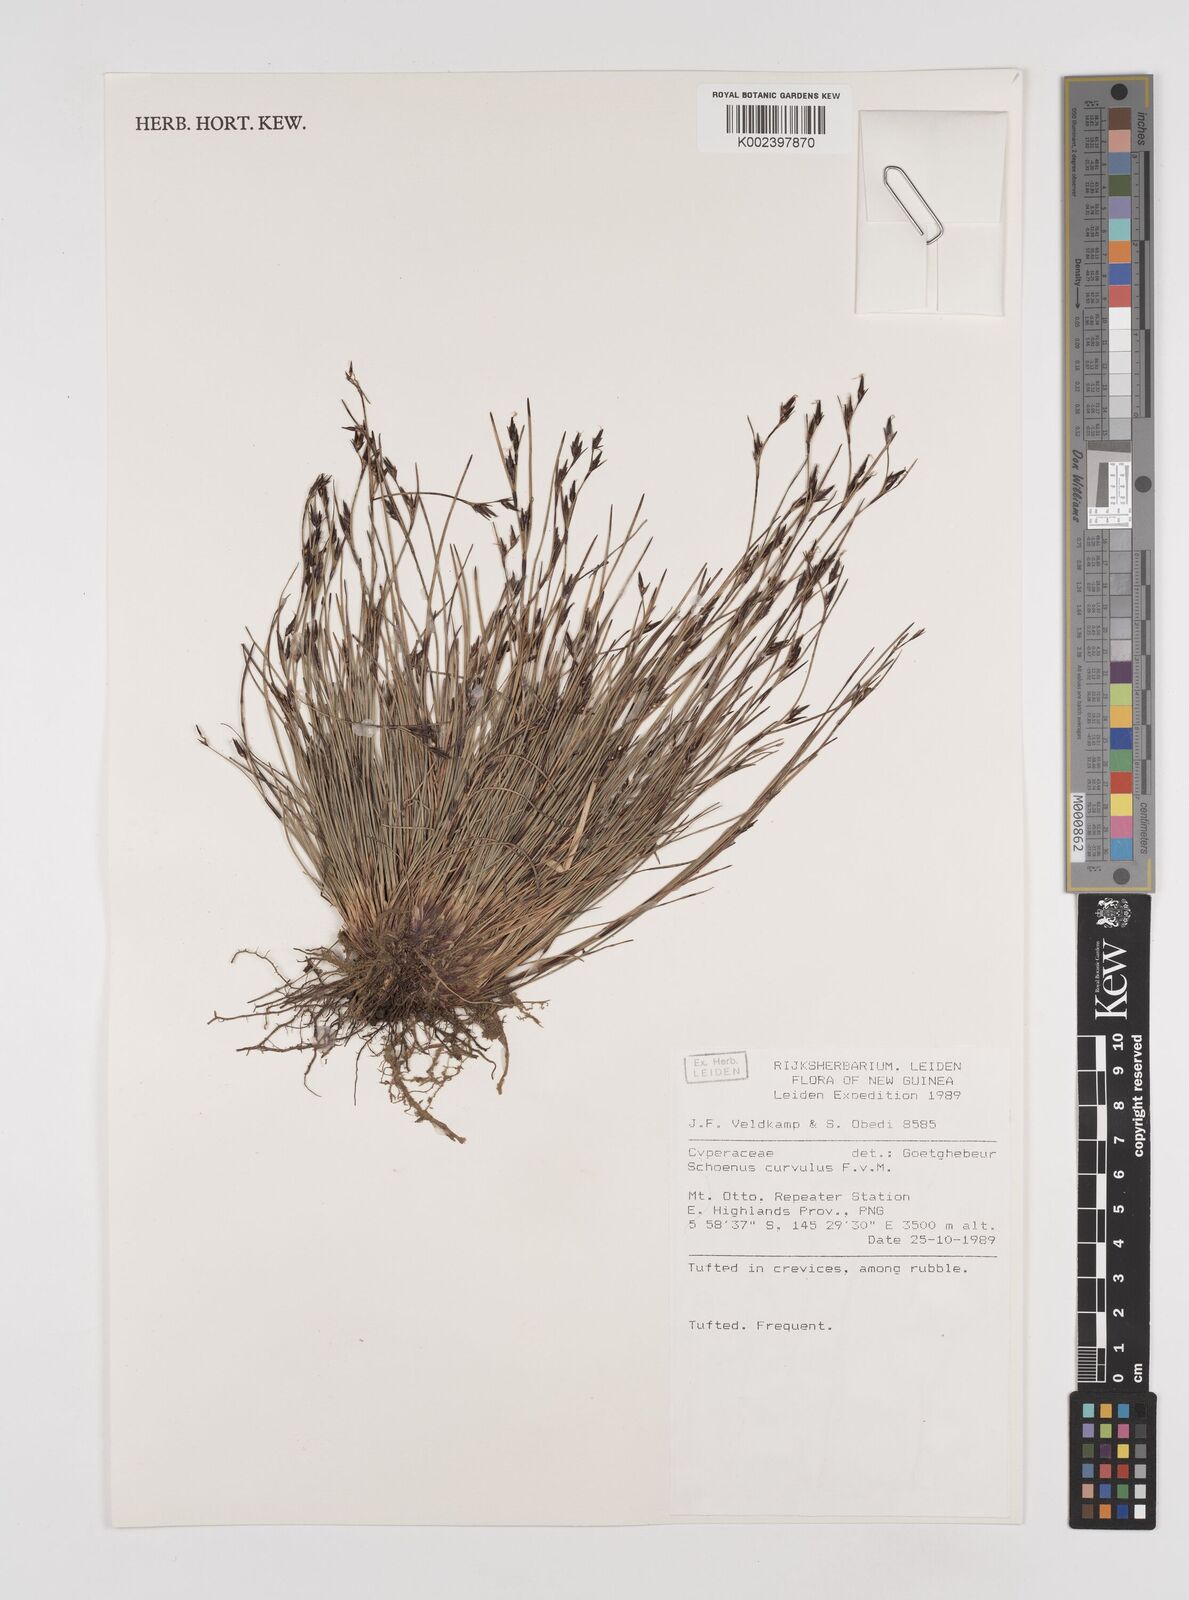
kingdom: Plantae
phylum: Tracheophyta
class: Liliopsida
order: Poales
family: Cyperaceae
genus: Schoenus
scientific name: Schoenus curvulus
